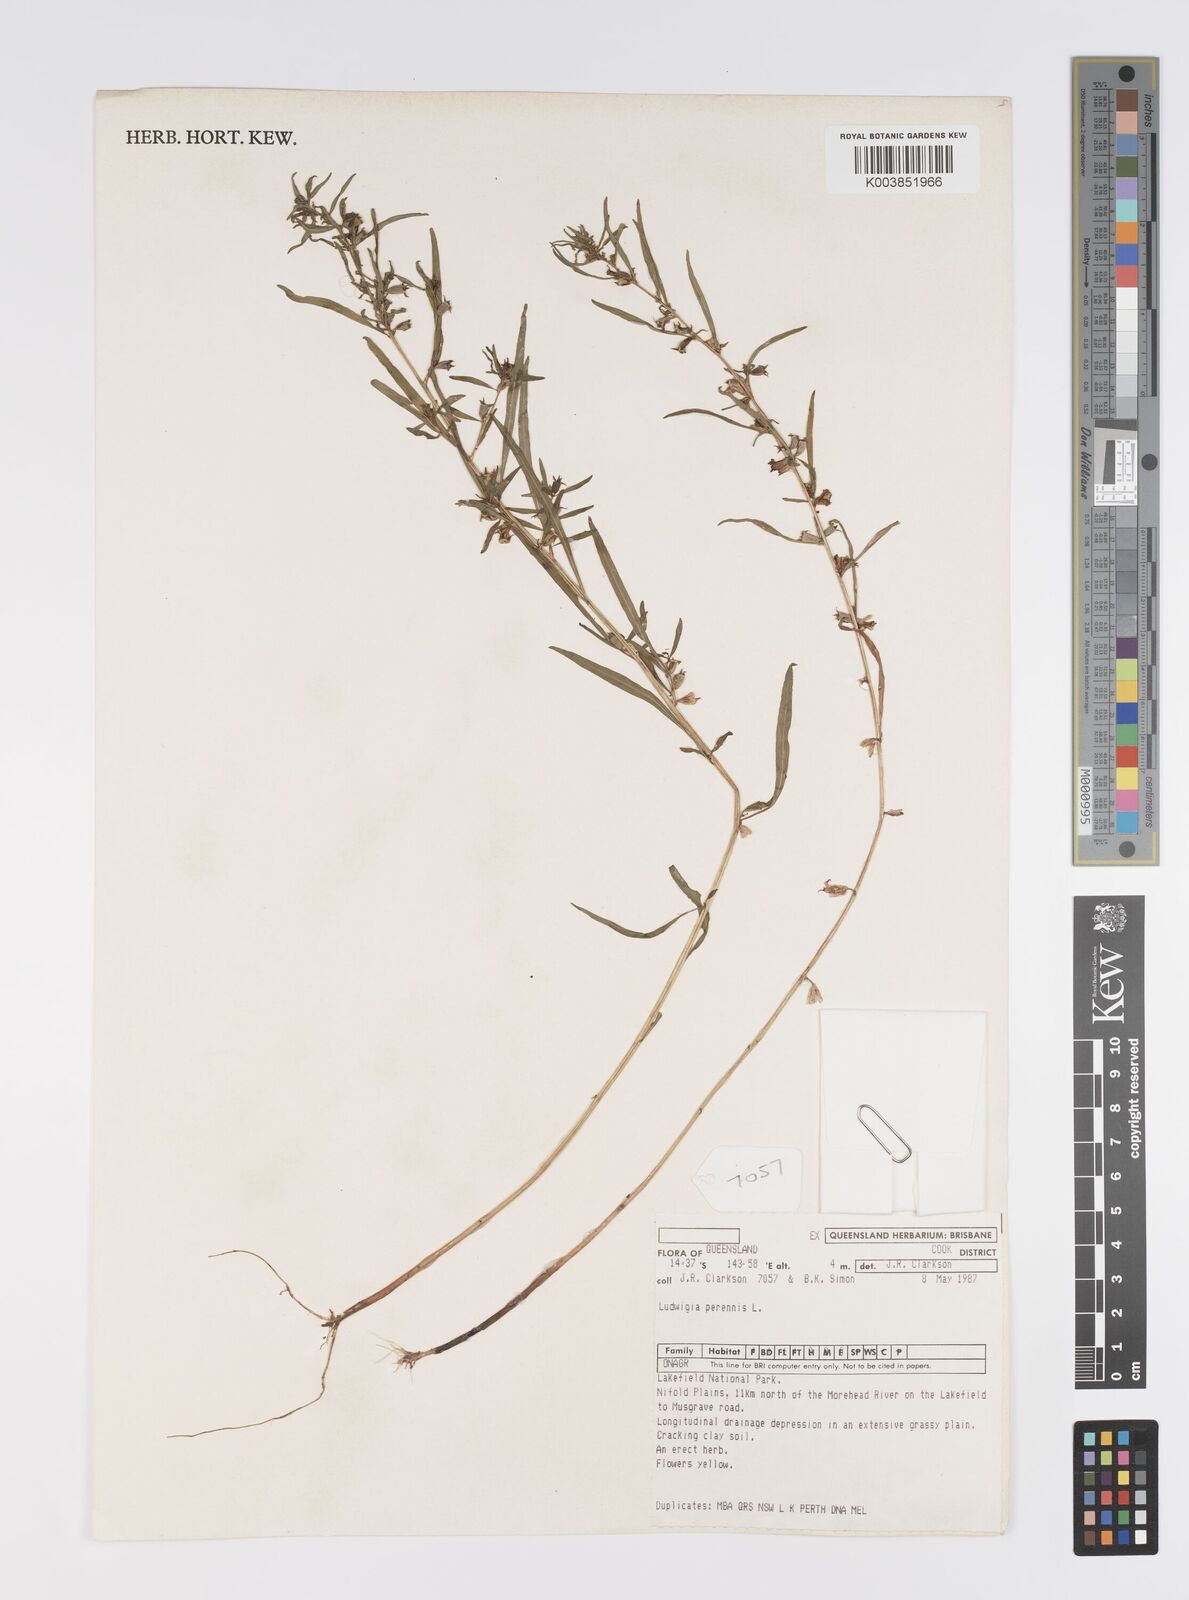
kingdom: Plantae
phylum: Tracheophyta
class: Magnoliopsida
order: Myrtales
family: Onagraceae
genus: Ludwigia
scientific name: Ludwigia perennis
